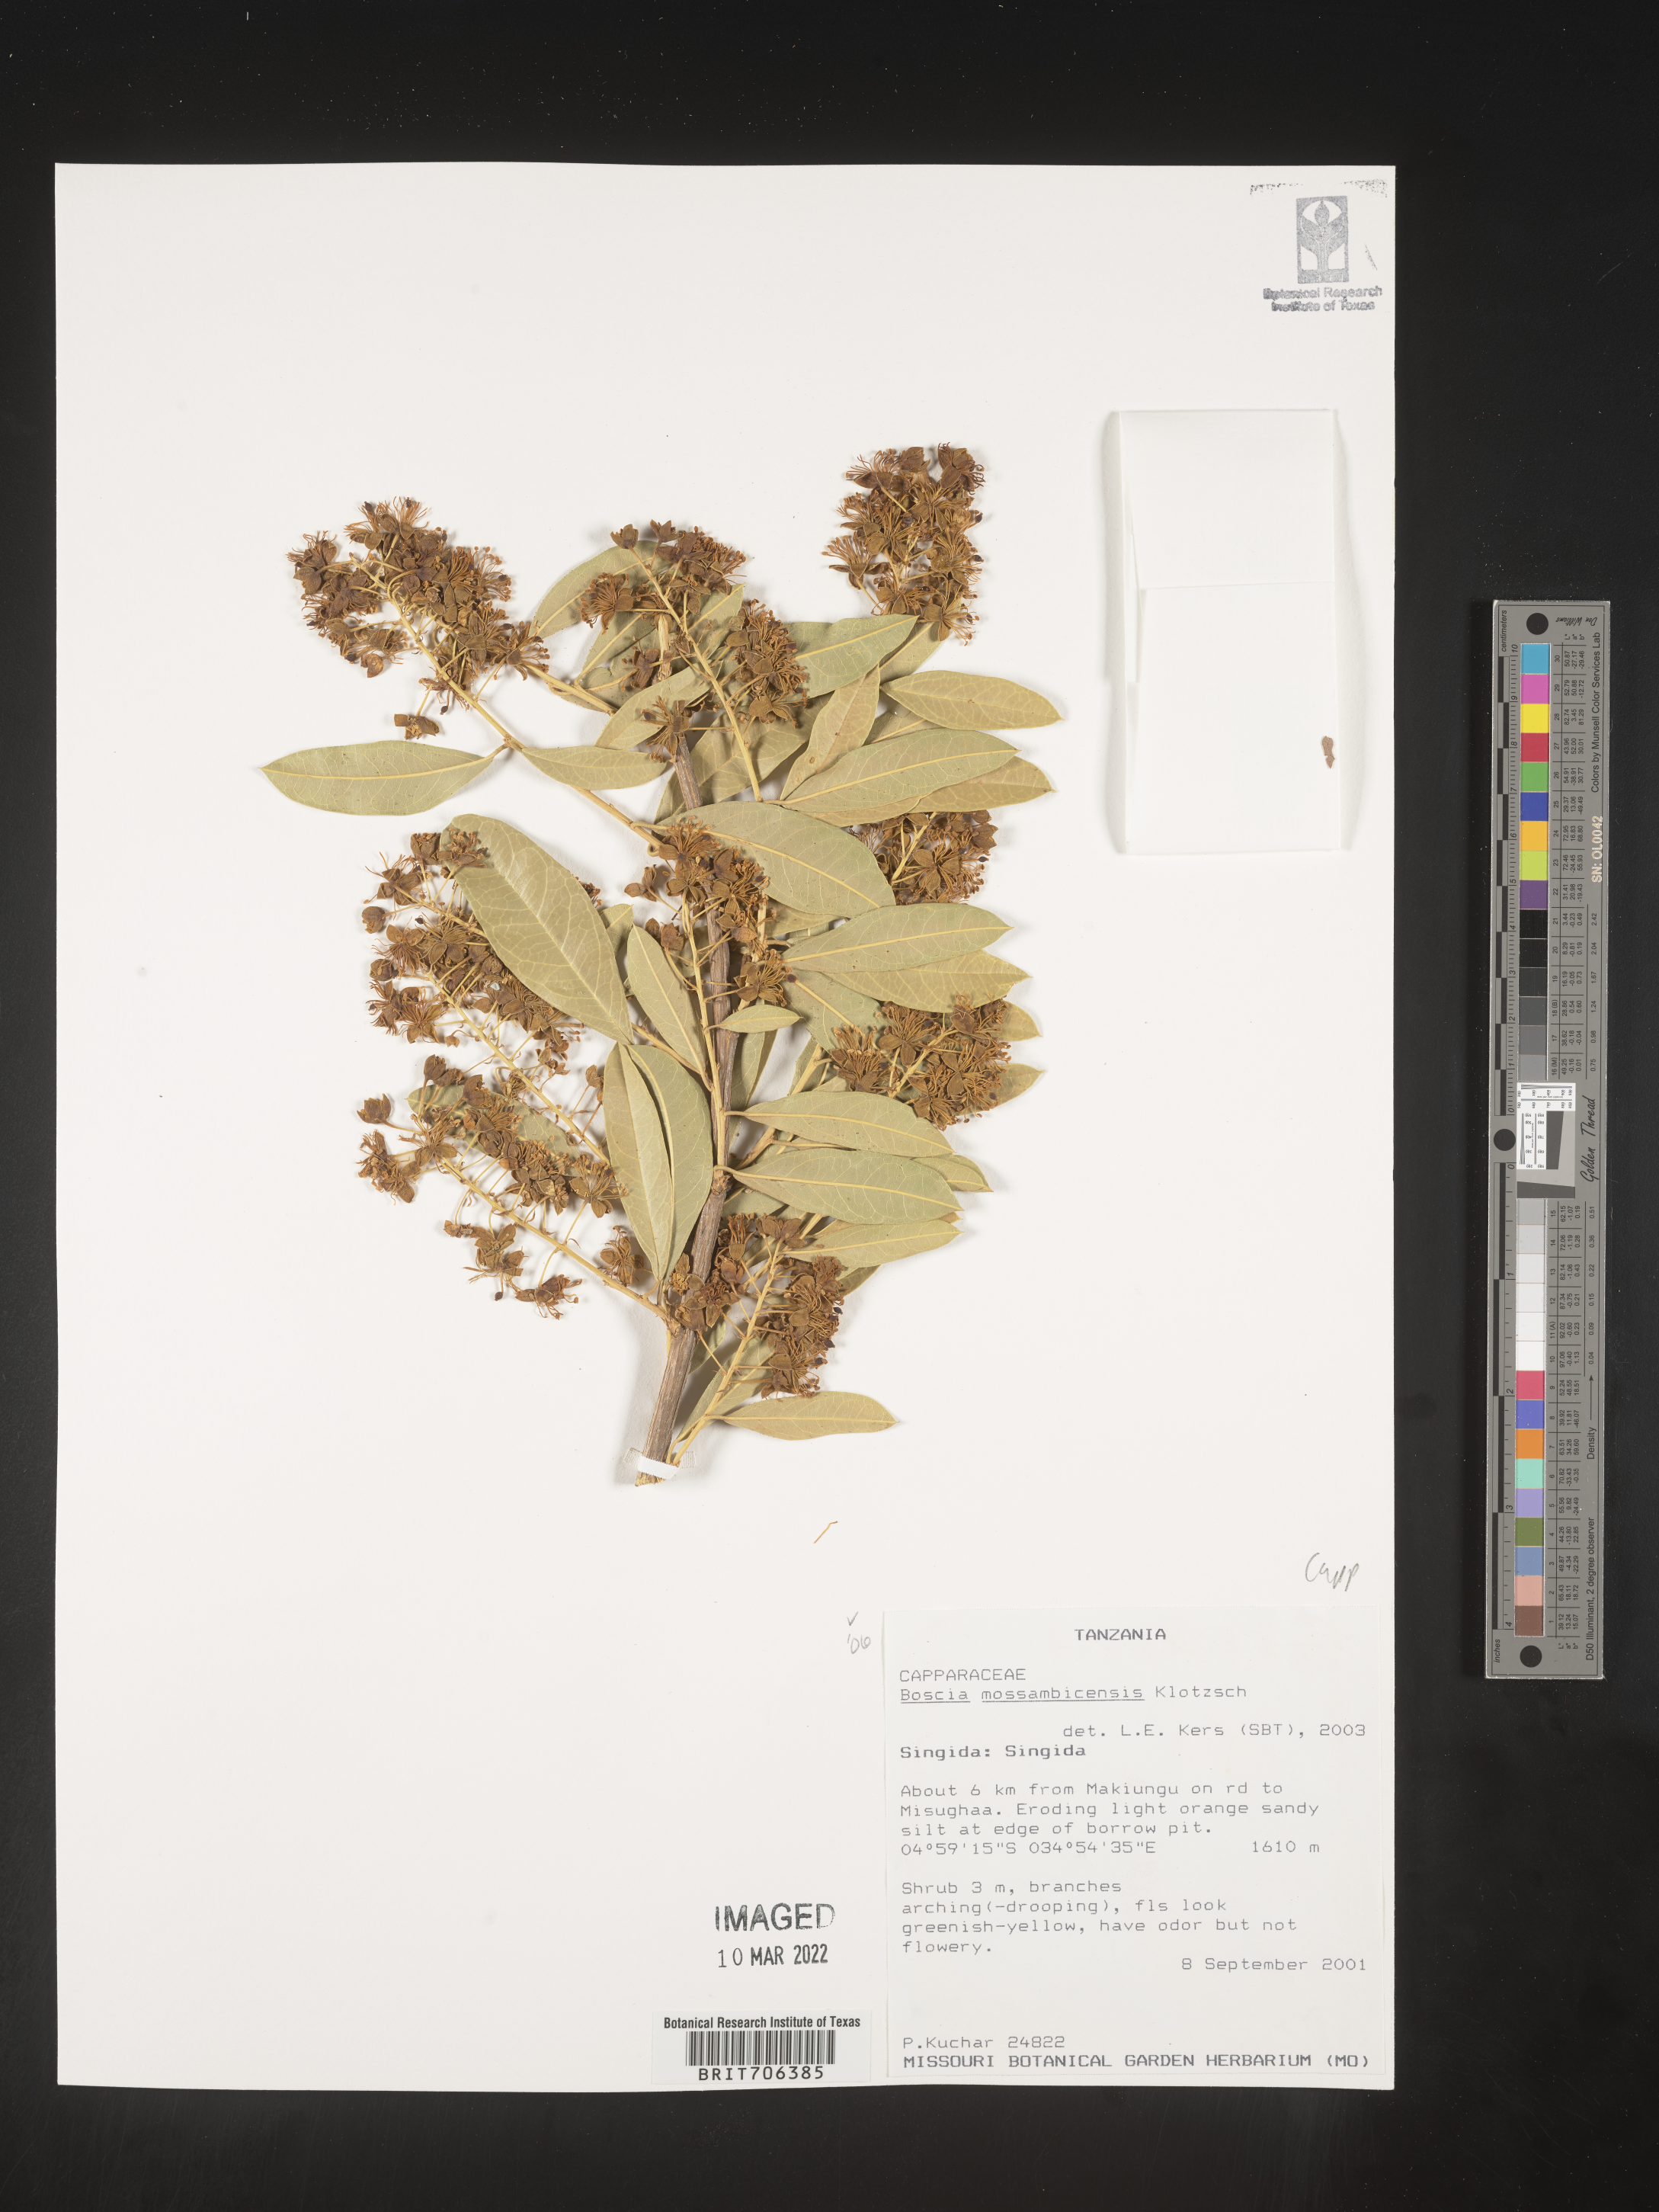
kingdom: Plantae
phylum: Tracheophyta
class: Magnoliopsida
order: Brassicales
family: Capparaceae
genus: Boscia
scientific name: Boscia
